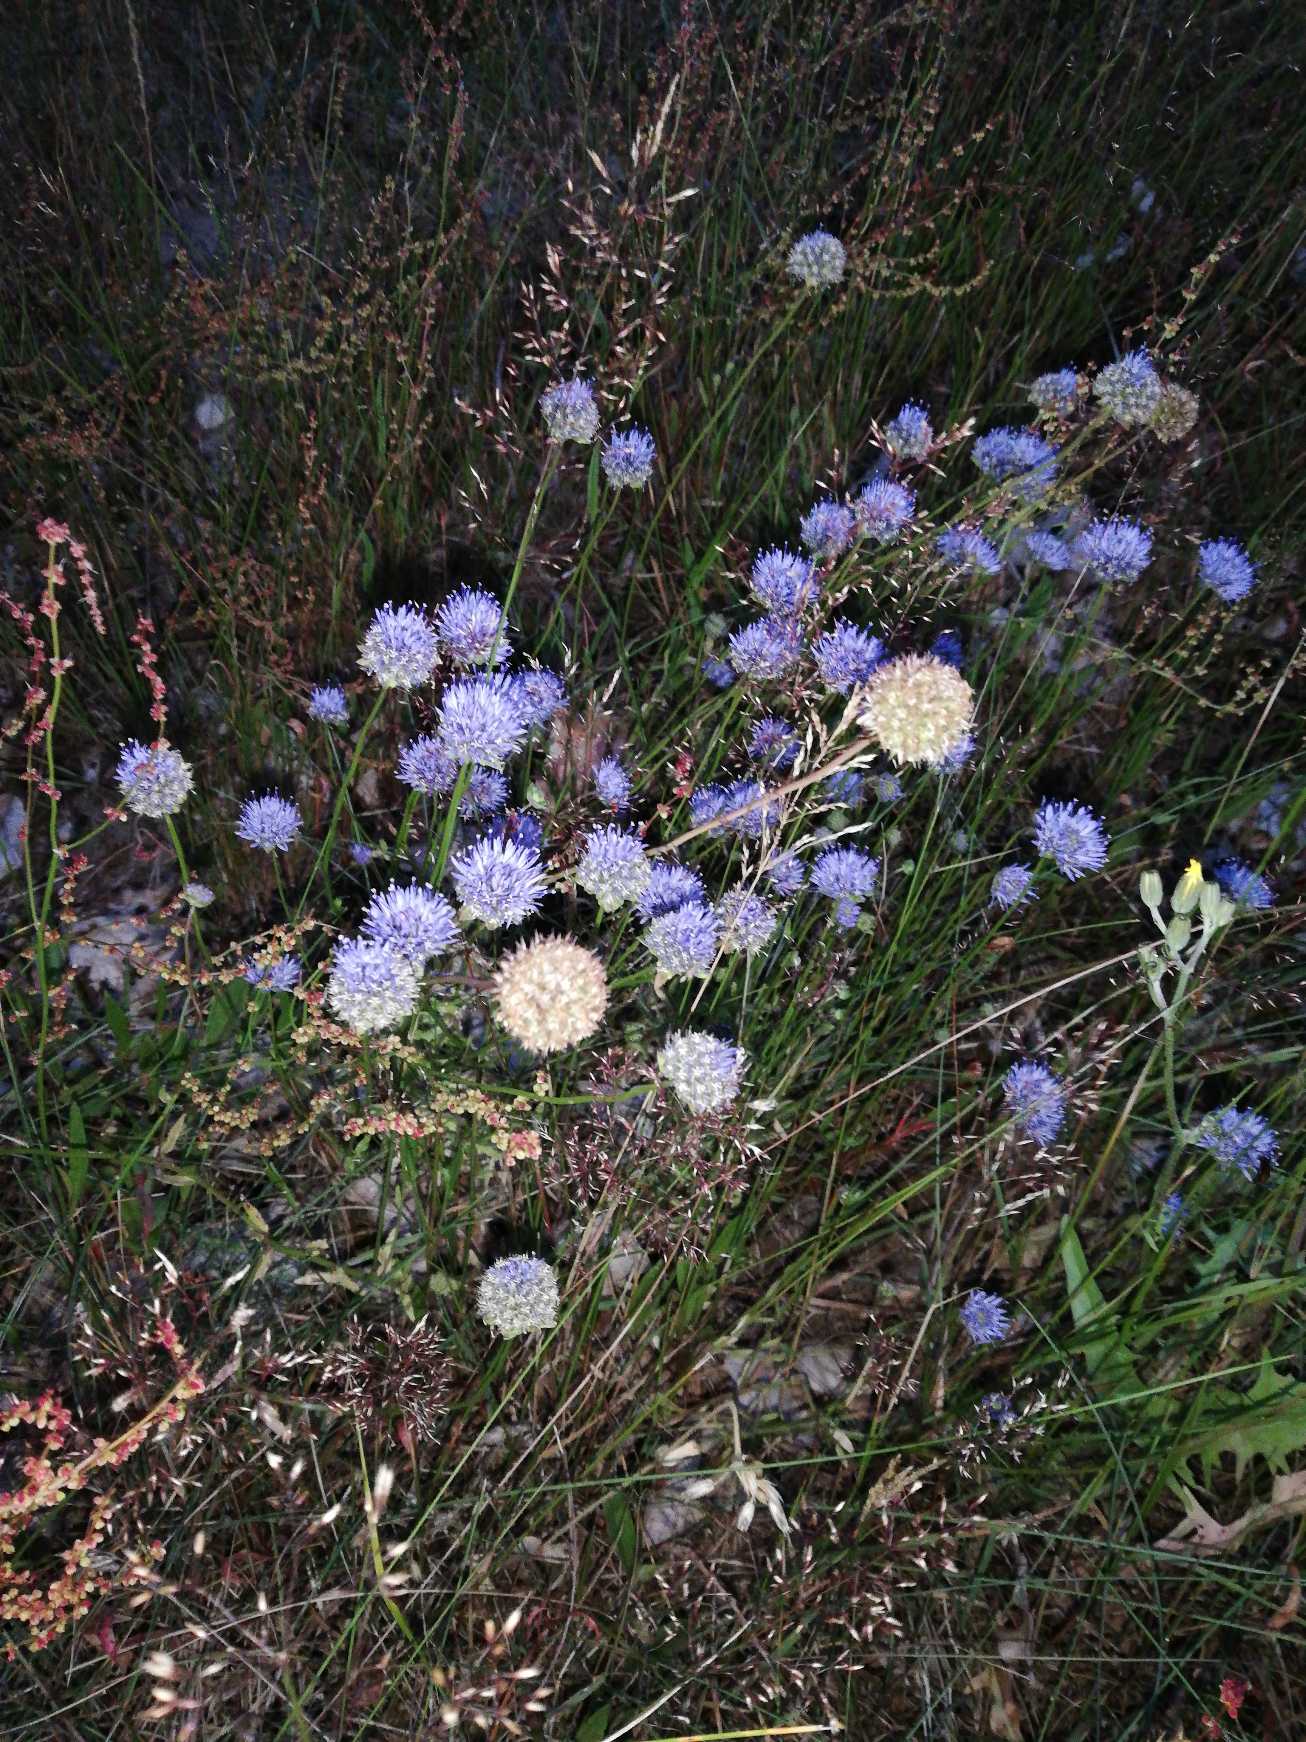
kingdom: Plantae
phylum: Tracheophyta
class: Magnoliopsida
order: Asterales
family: Campanulaceae
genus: Jasione
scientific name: Jasione montana
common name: Blåmunke
